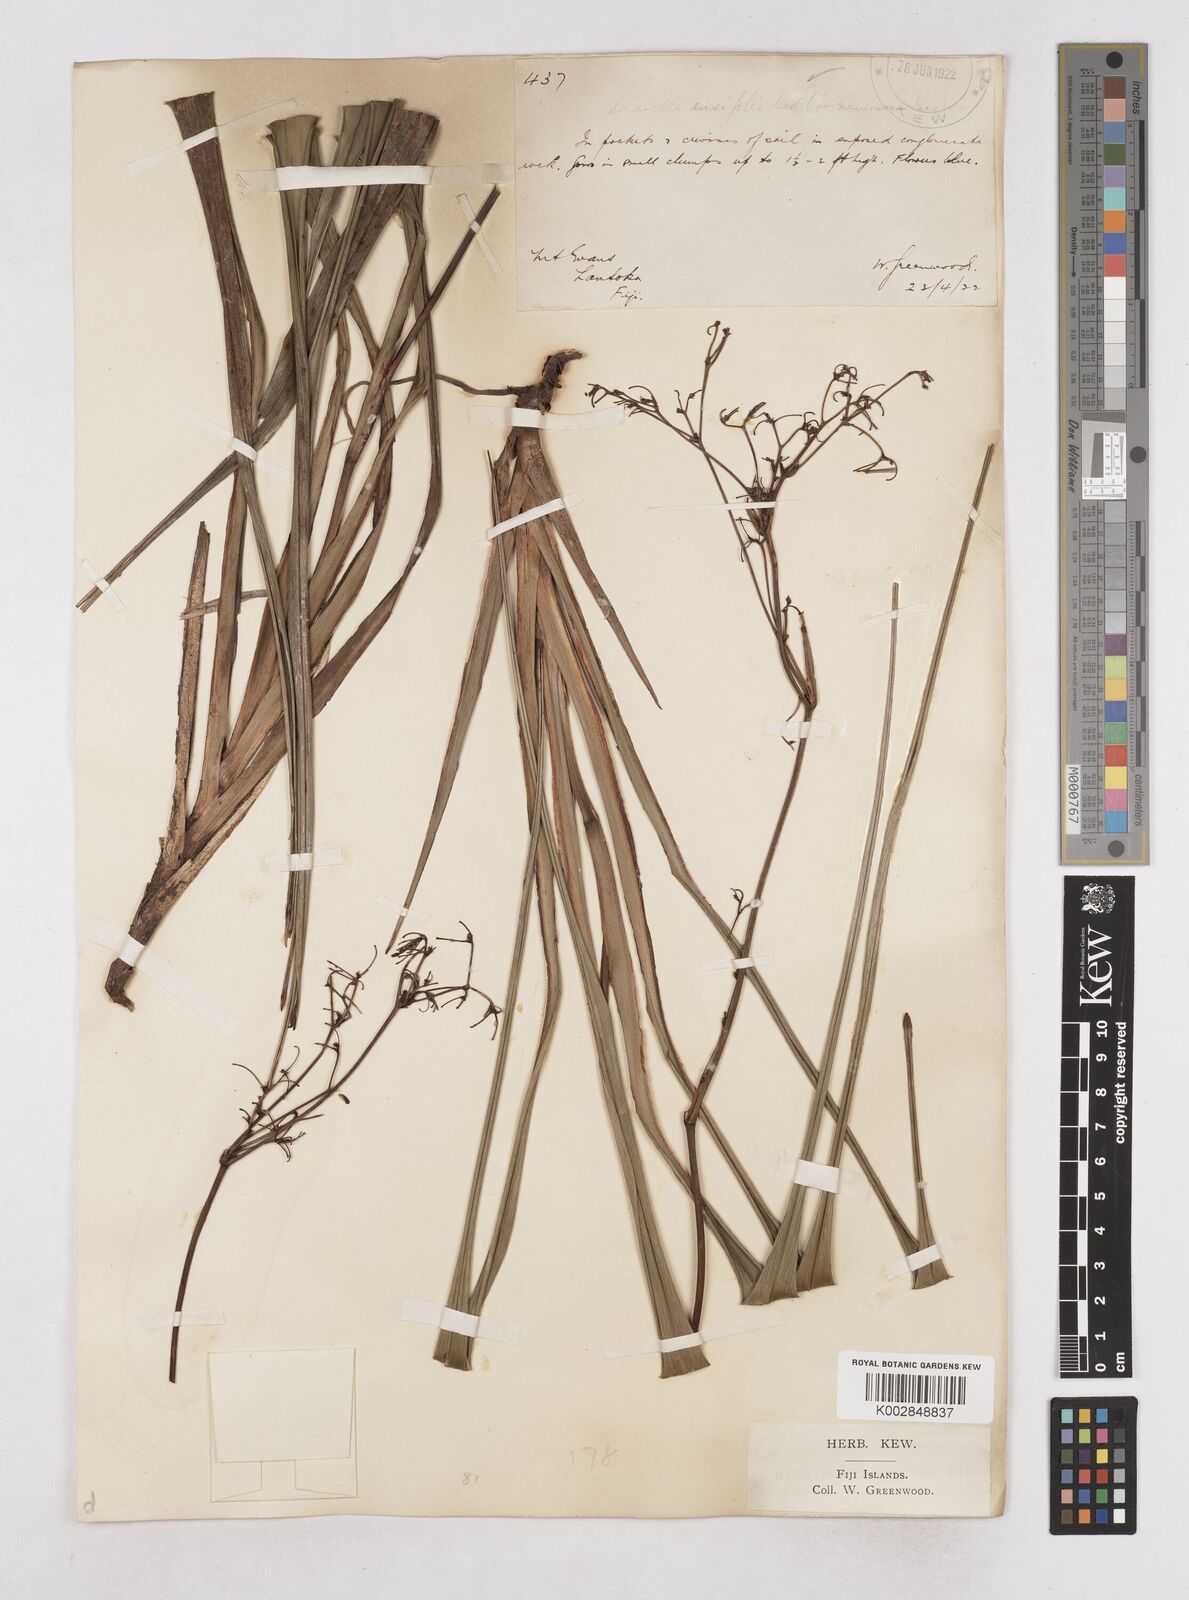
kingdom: Plantae
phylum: Tracheophyta
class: Liliopsida
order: Asparagales
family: Asphodelaceae
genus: Dianella
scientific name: Dianella ensifolia
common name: New zealand lilyplant
